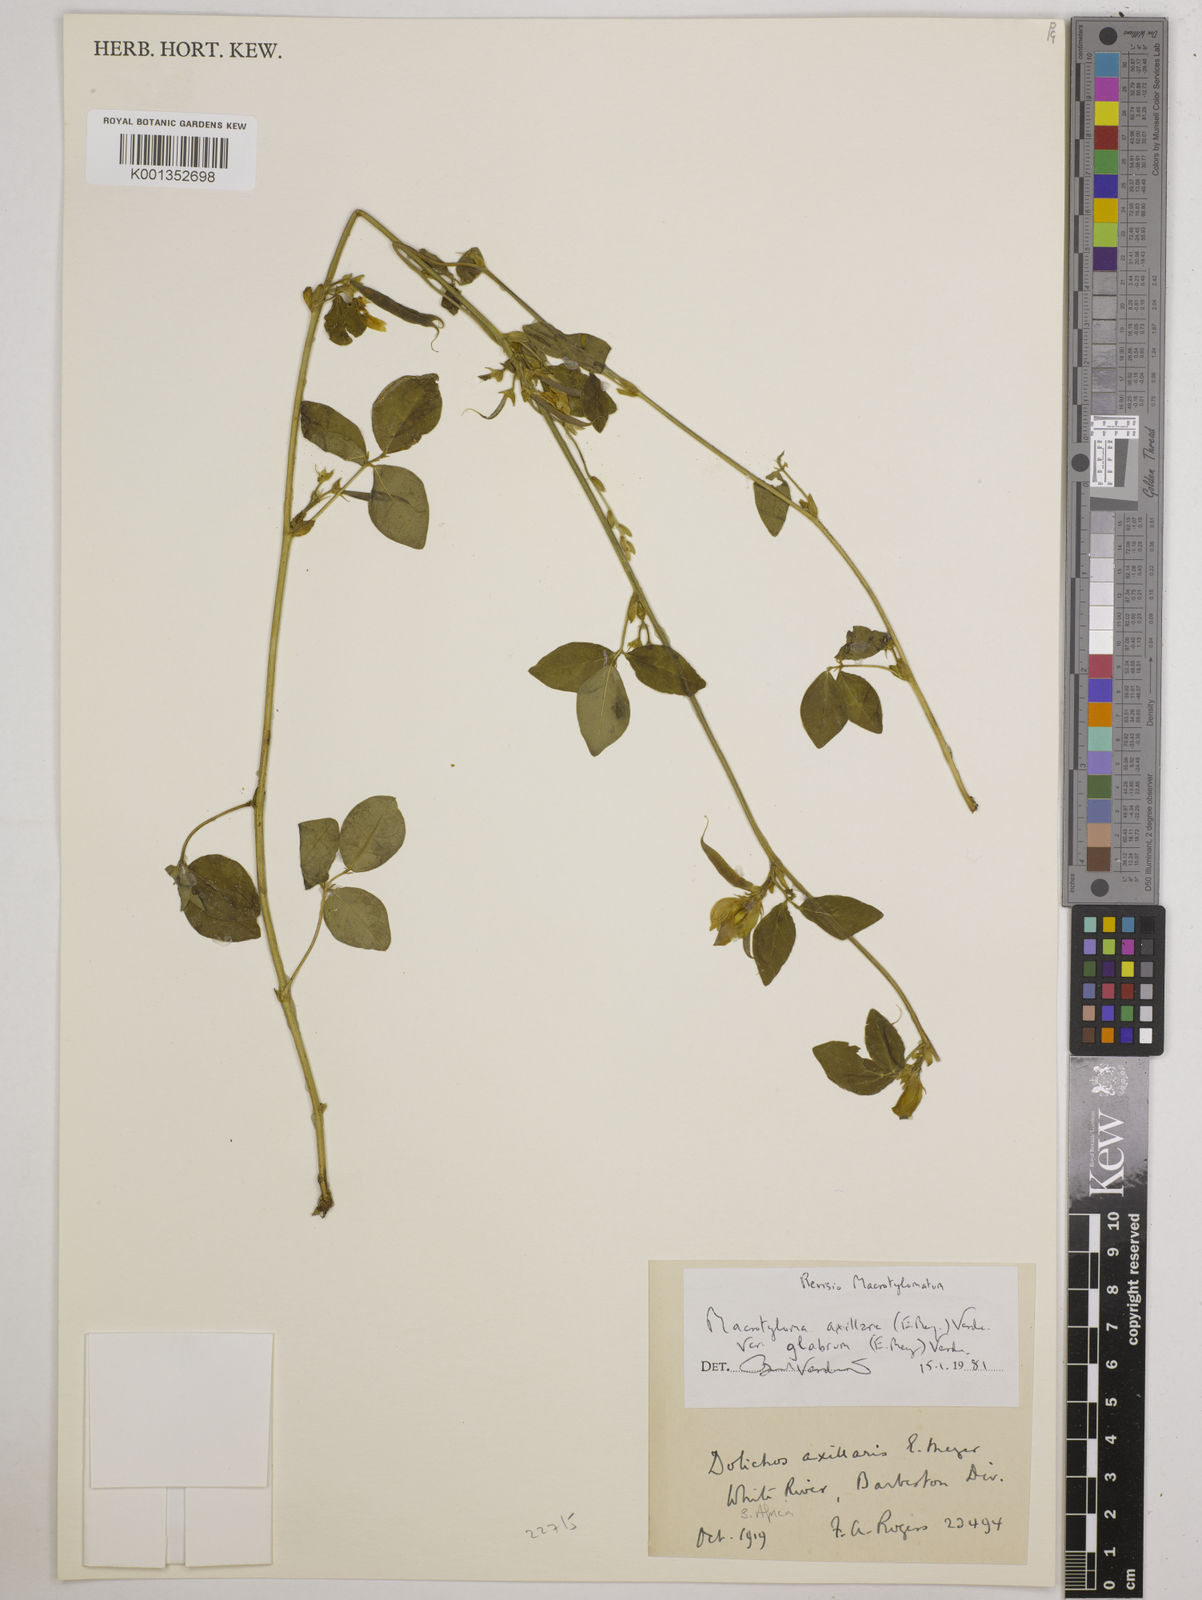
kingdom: Plantae
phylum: Tracheophyta
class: Magnoliopsida
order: Fabales
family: Fabaceae
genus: Macrotyloma
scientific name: Macrotyloma
